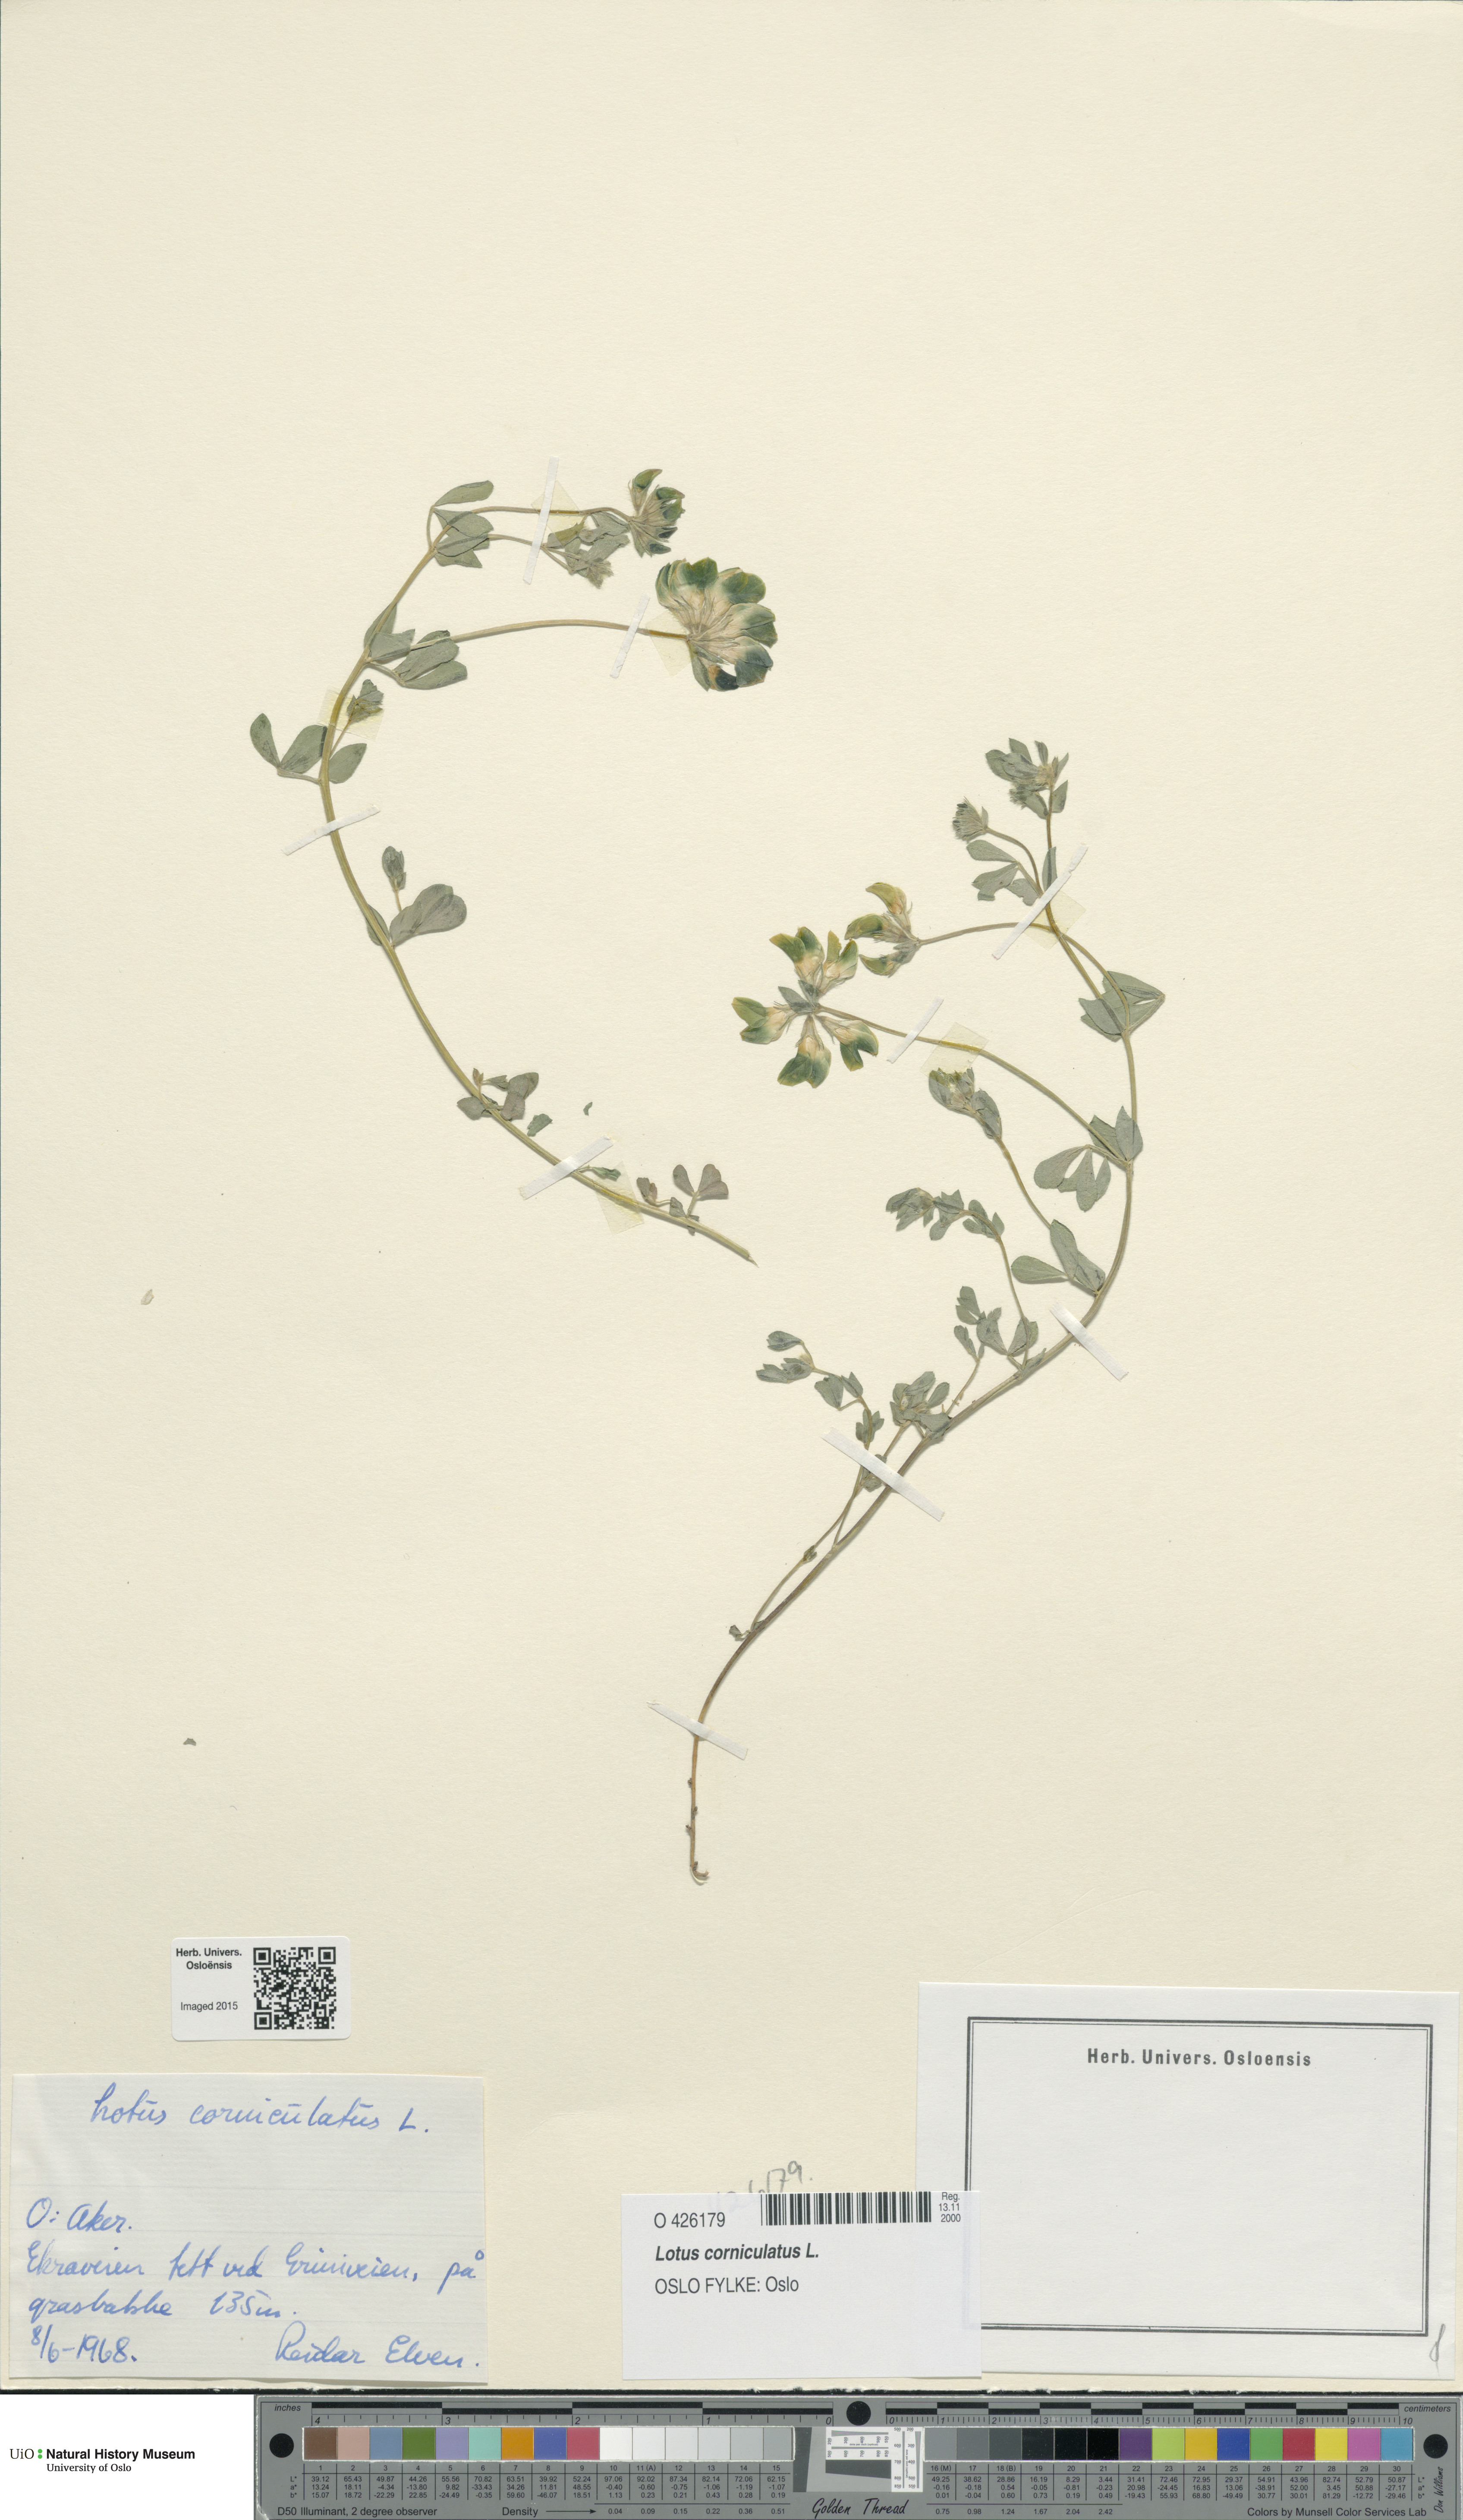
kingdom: Plantae
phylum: Tracheophyta
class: Magnoliopsida
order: Fabales
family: Fabaceae
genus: Lotus
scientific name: Lotus corniculatus
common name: Common bird's-foot-trefoil
